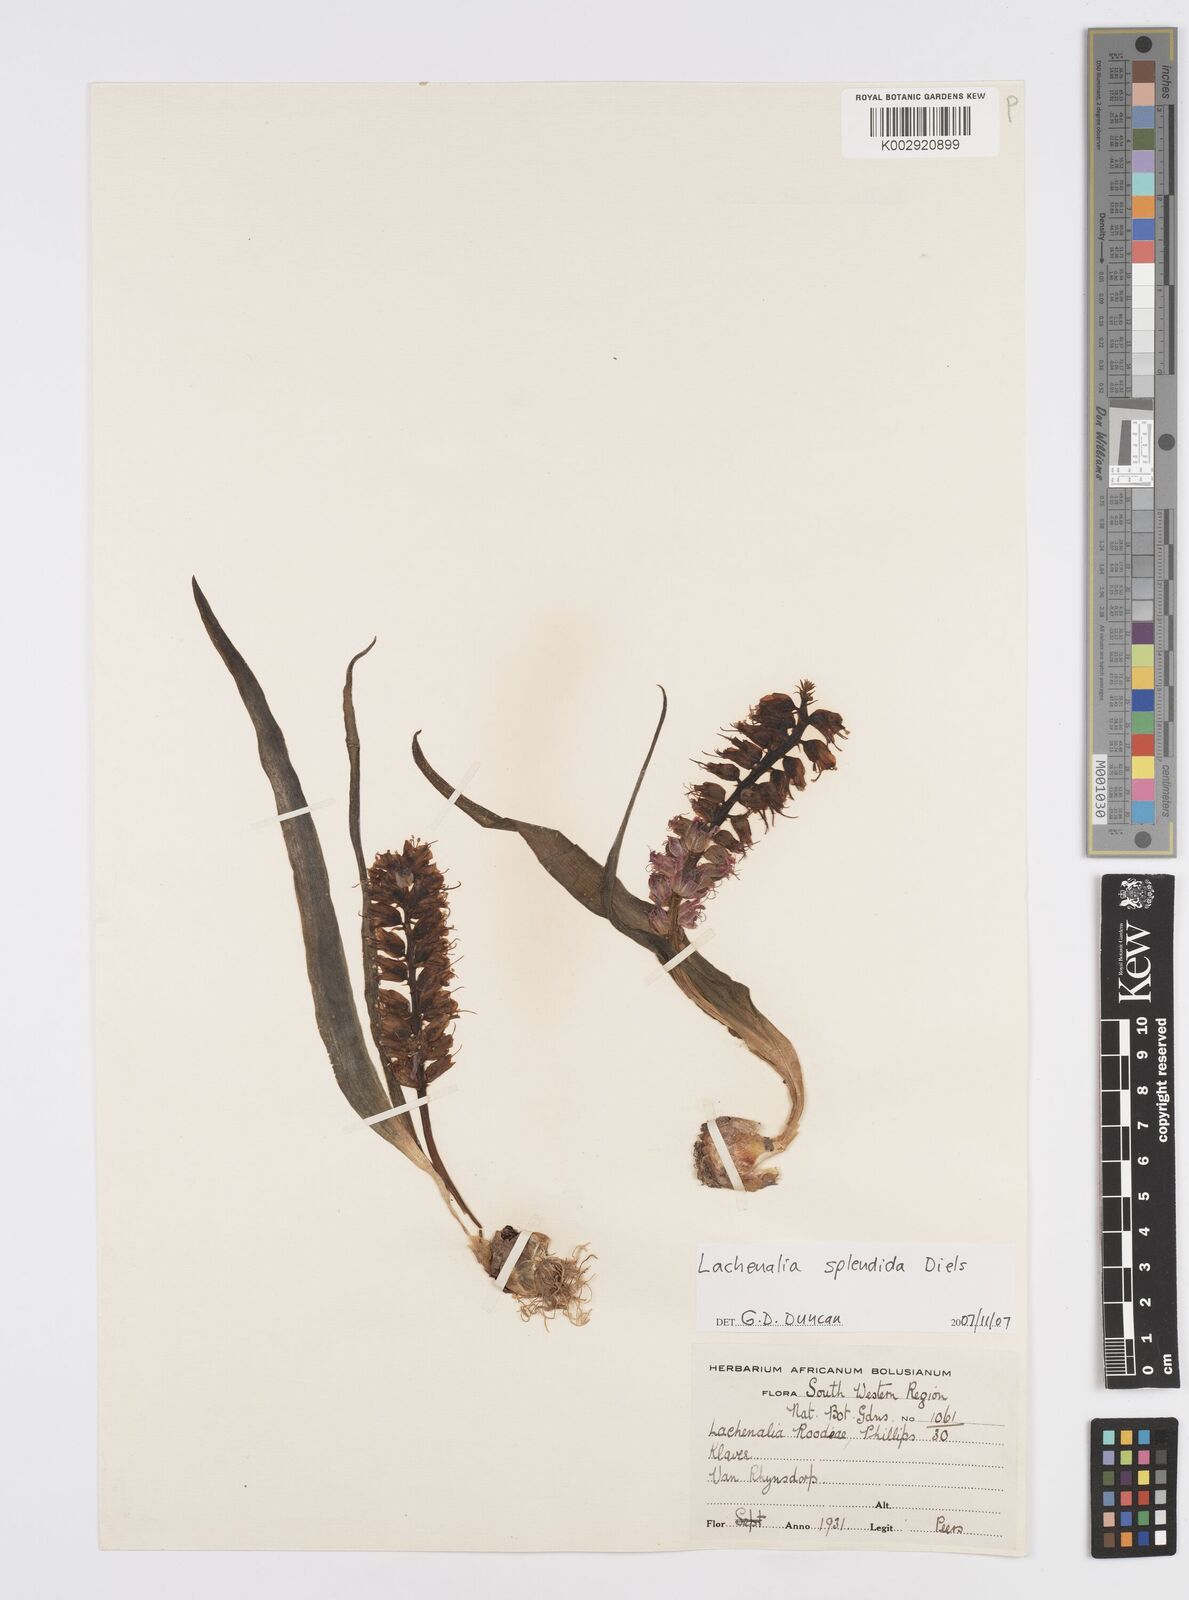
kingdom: Plantae
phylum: Tracheophyta
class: Liliopsida
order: Asparagales
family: Asparagaceae
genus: Lachenalia
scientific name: Lachenalia splendida
